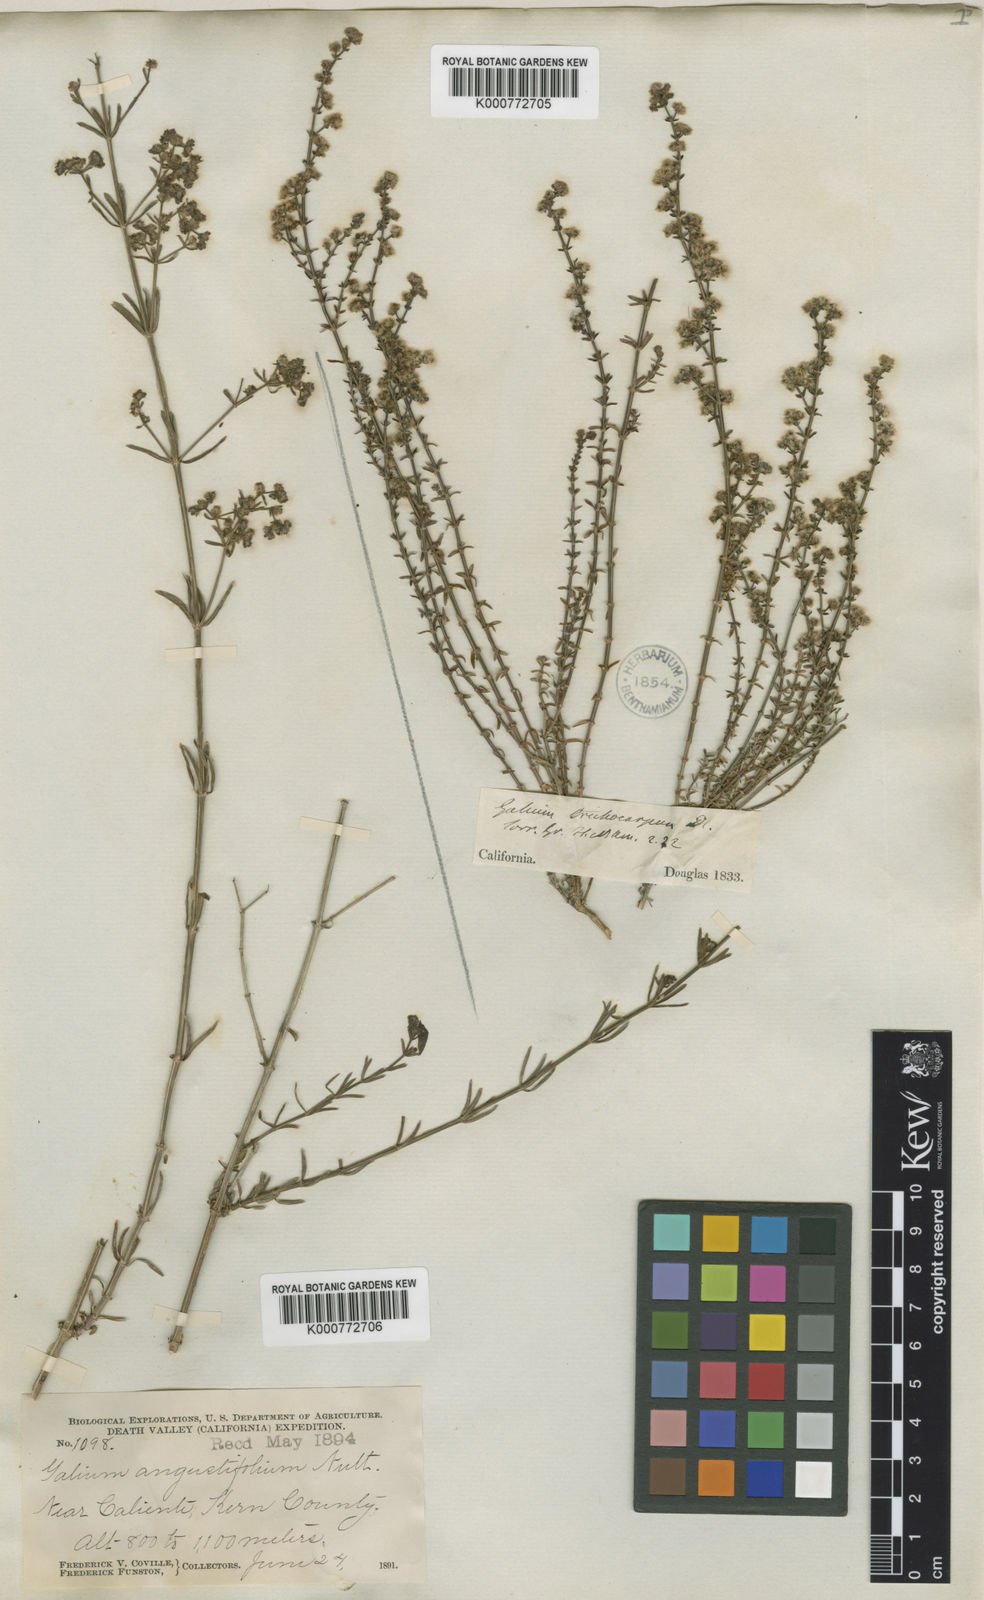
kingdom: Plantae
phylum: Tracheophyta
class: Magnoliopsida
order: Gentianales
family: Rubiaceae
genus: Galium
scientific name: Galium
